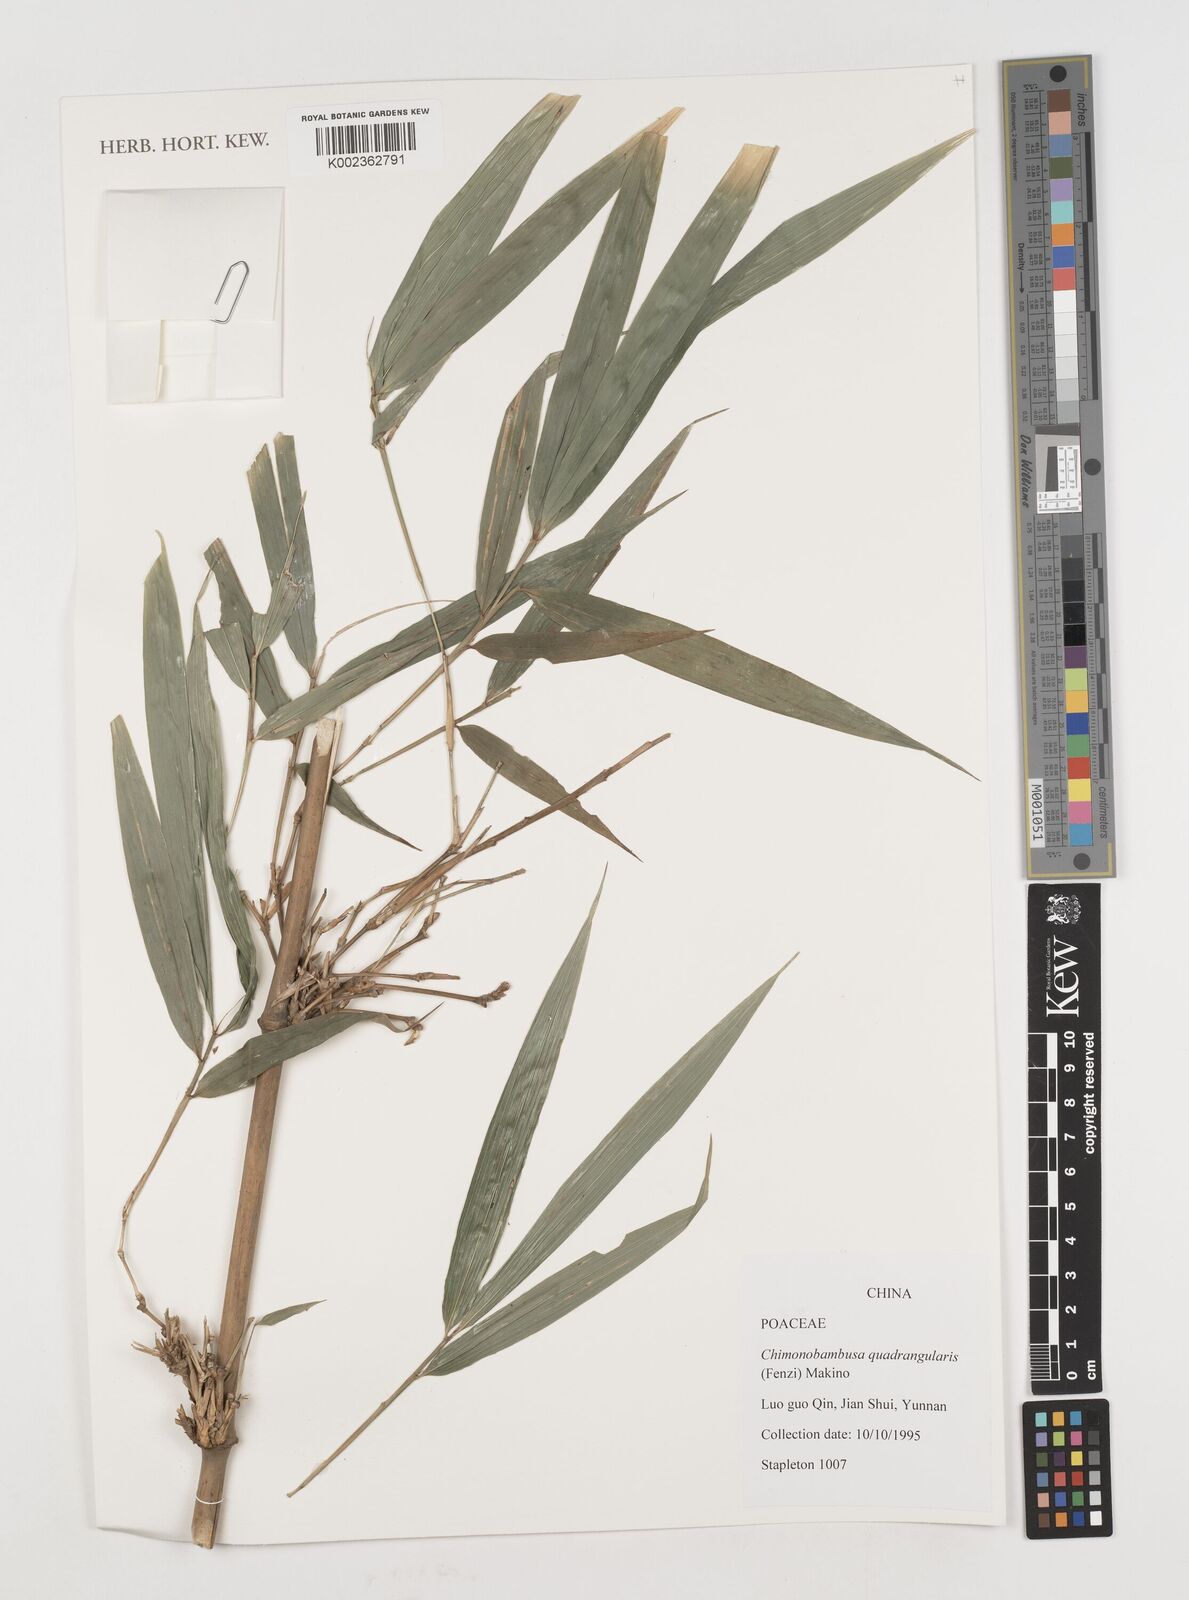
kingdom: Plantae
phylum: Tracheophyta
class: Liliopsida
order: Poales
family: Poaceae
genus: Chimonobambusa
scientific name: Chimonobambusa quadrangularis
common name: Square-stemmed bamboo
